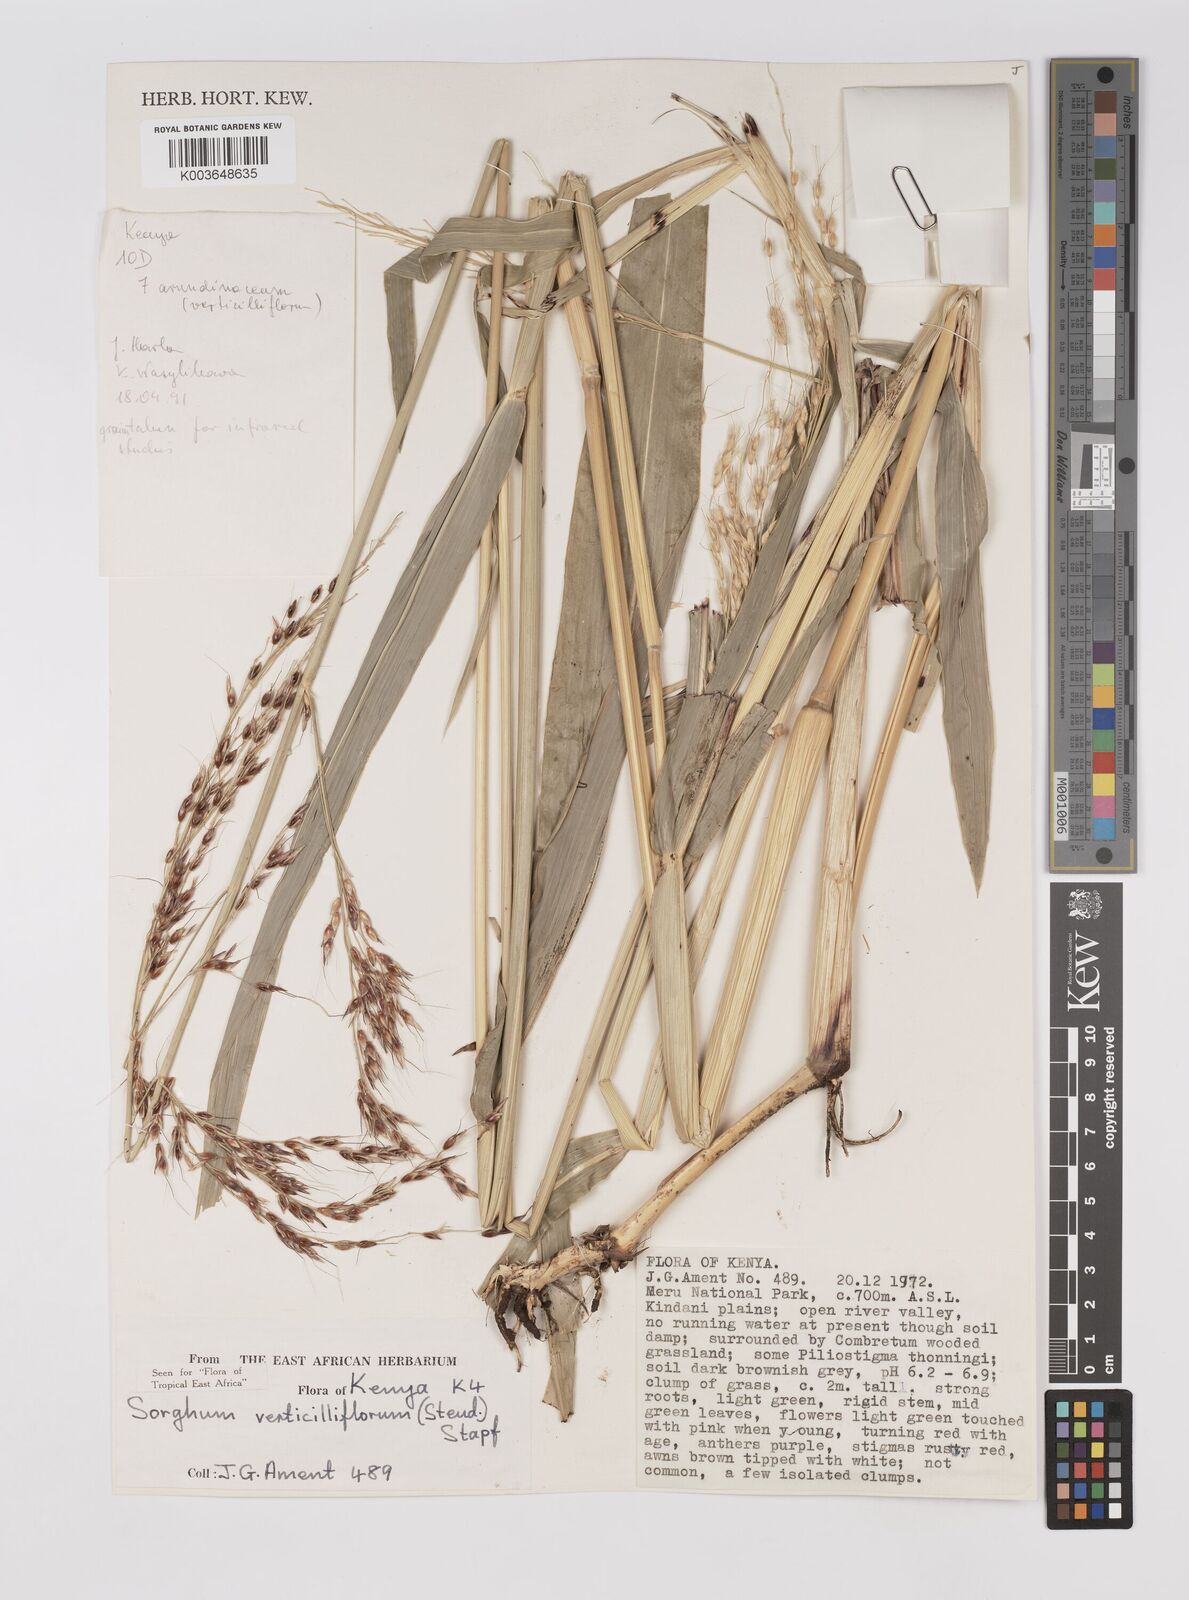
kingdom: Plantae
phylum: Tracheophyta
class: Liliopsida
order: Poales
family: Poaceae
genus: Sorghum
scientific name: Sorghum arundinaceum
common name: Sorghum
